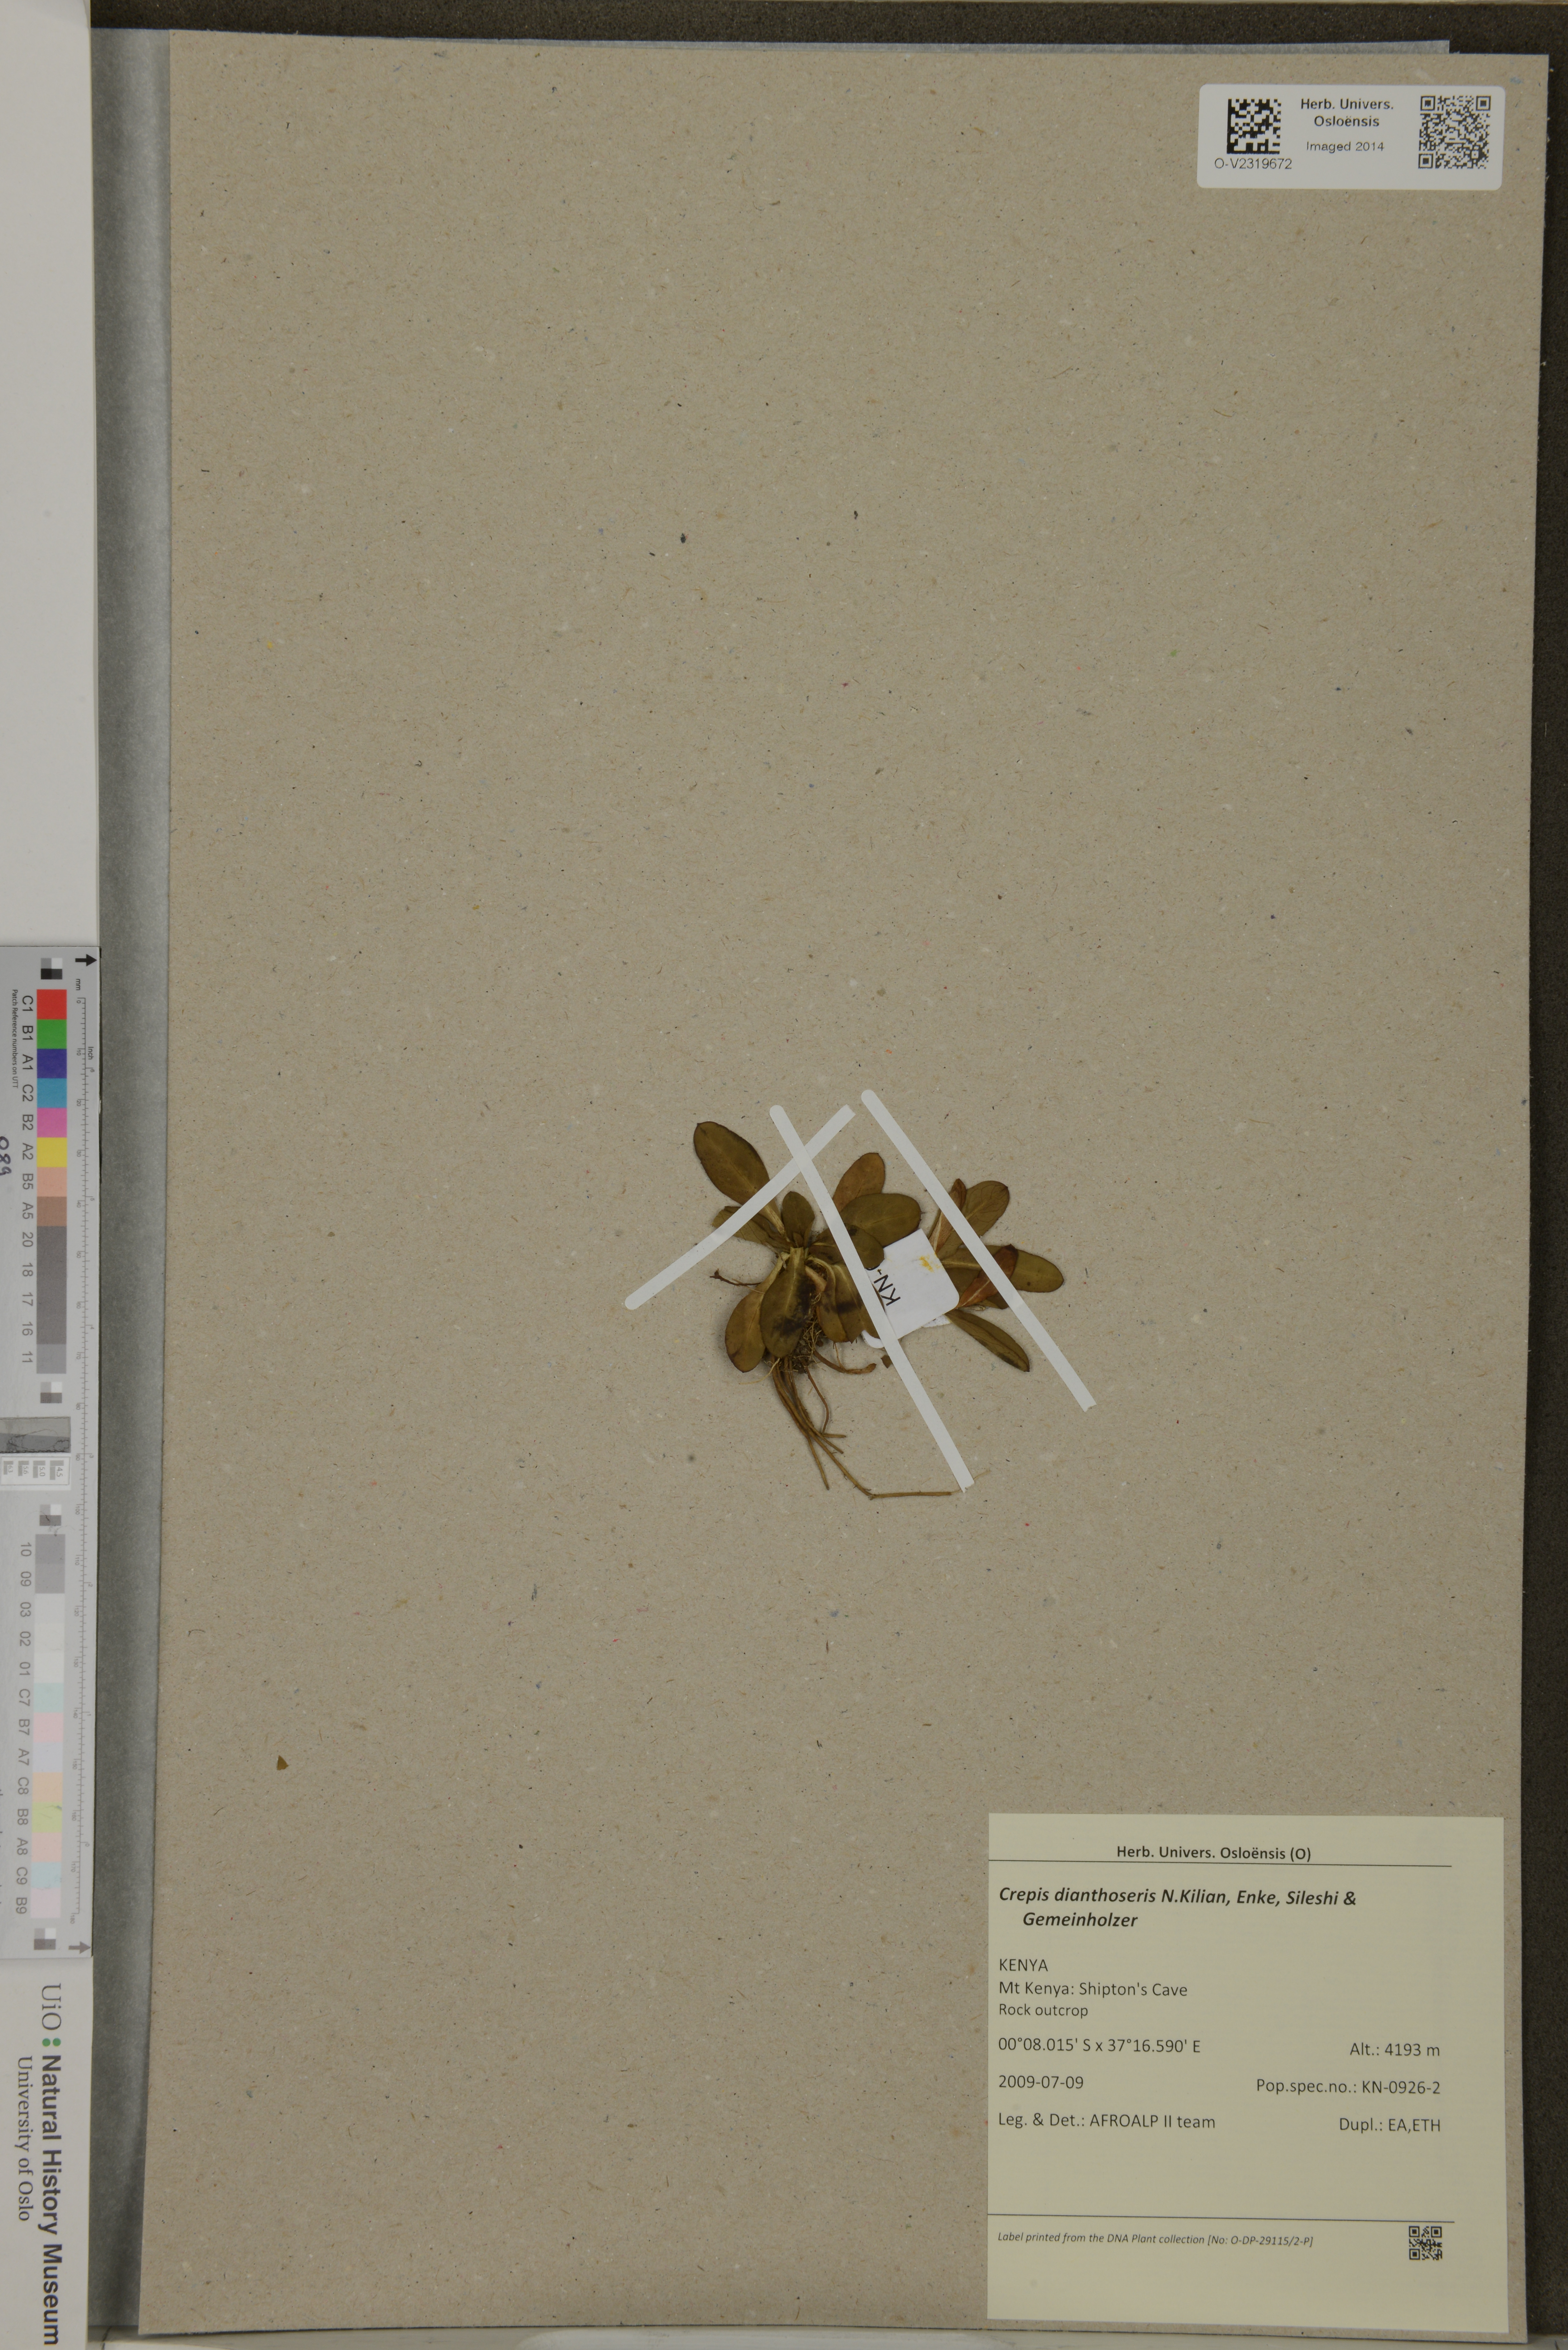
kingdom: Plantae
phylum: Tracheophyta
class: Magnoliopsida
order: Asterales
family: Asteraceae
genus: Crepis
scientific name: Crepis dianthoseris
